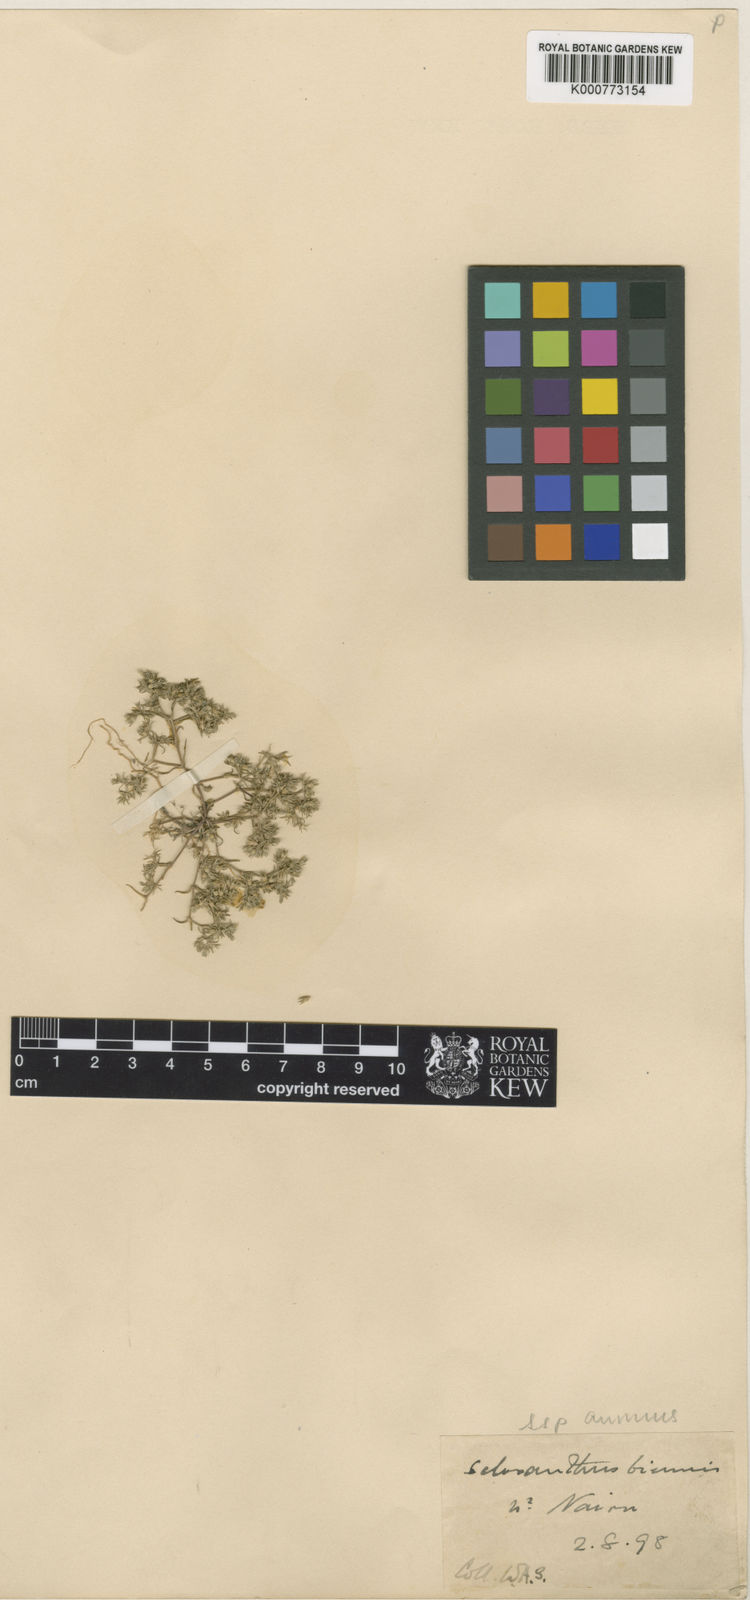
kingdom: Plantae
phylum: Tracheophyta
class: Magnoliopsida
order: Caryophyllales
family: Caryophyllaceae
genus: Scleranthus
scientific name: Scleranthus annuus
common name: Annual knawel
